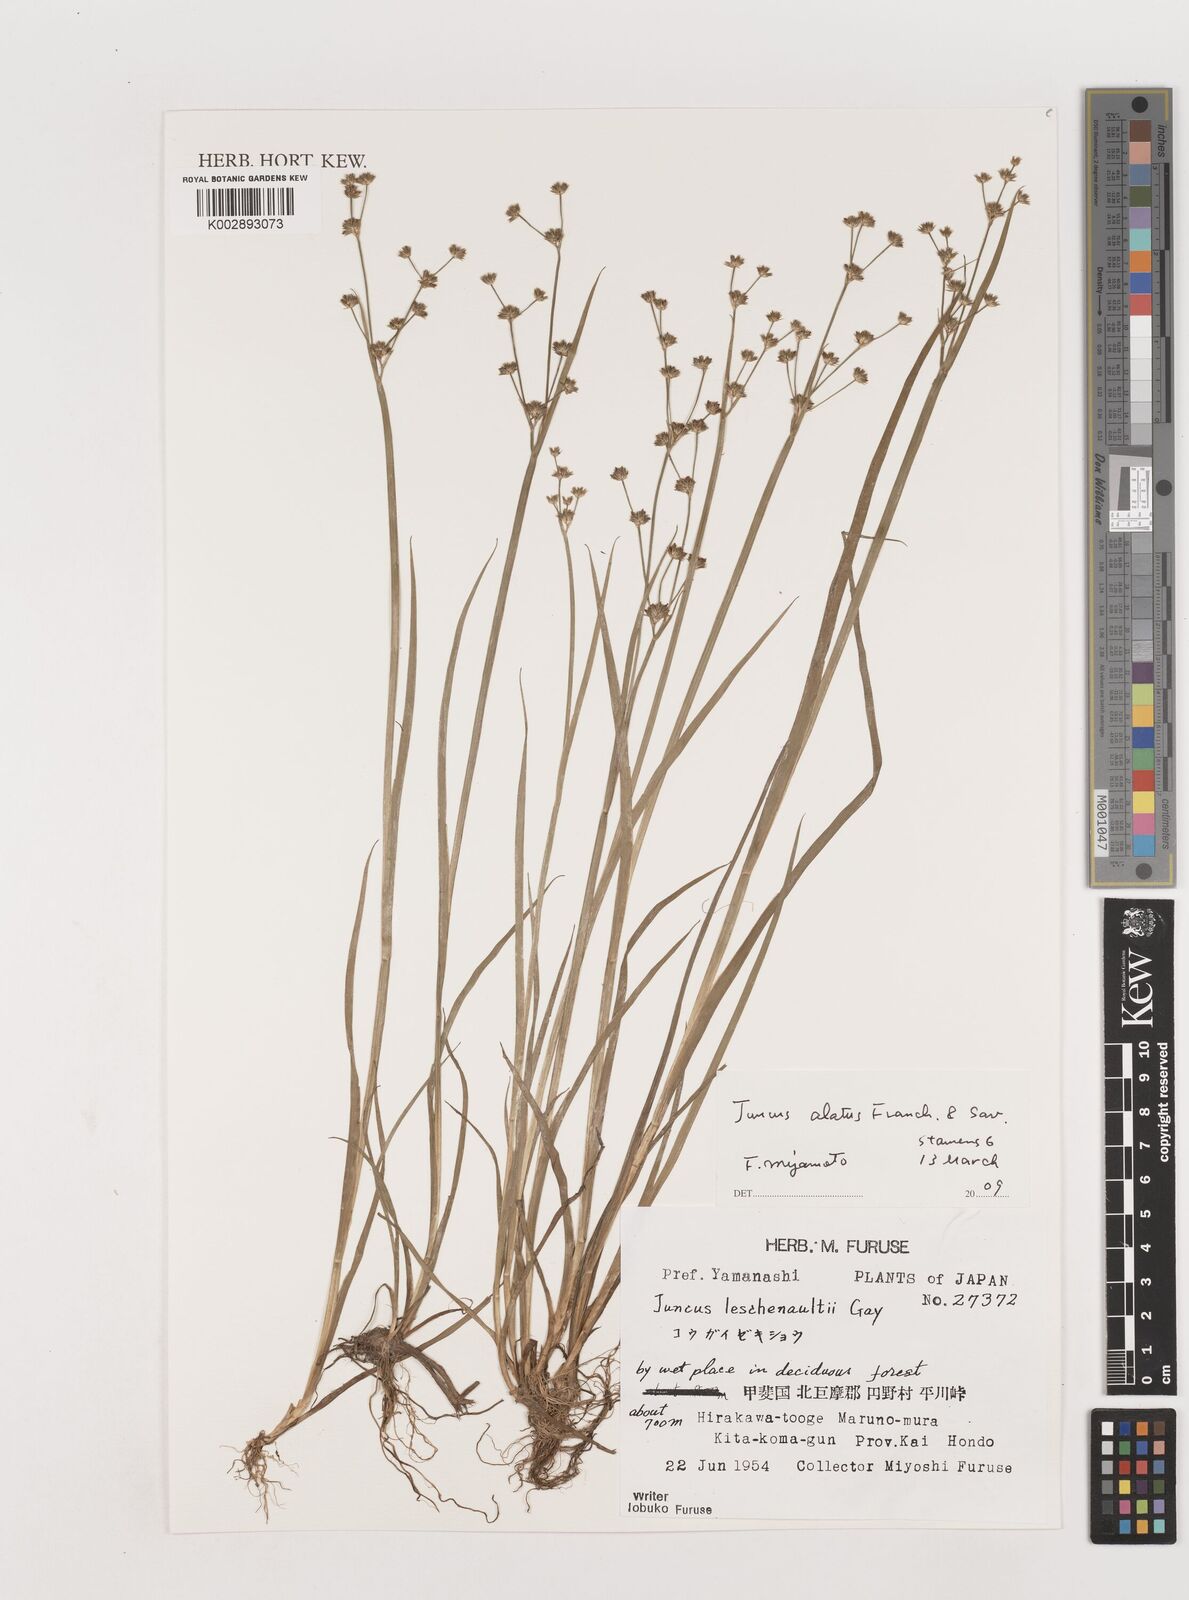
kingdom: Plantae
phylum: Tracheophyta
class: Liliopsida
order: Poales
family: Juncaceae
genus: Juncus
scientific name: Juncus prismatocarpus
